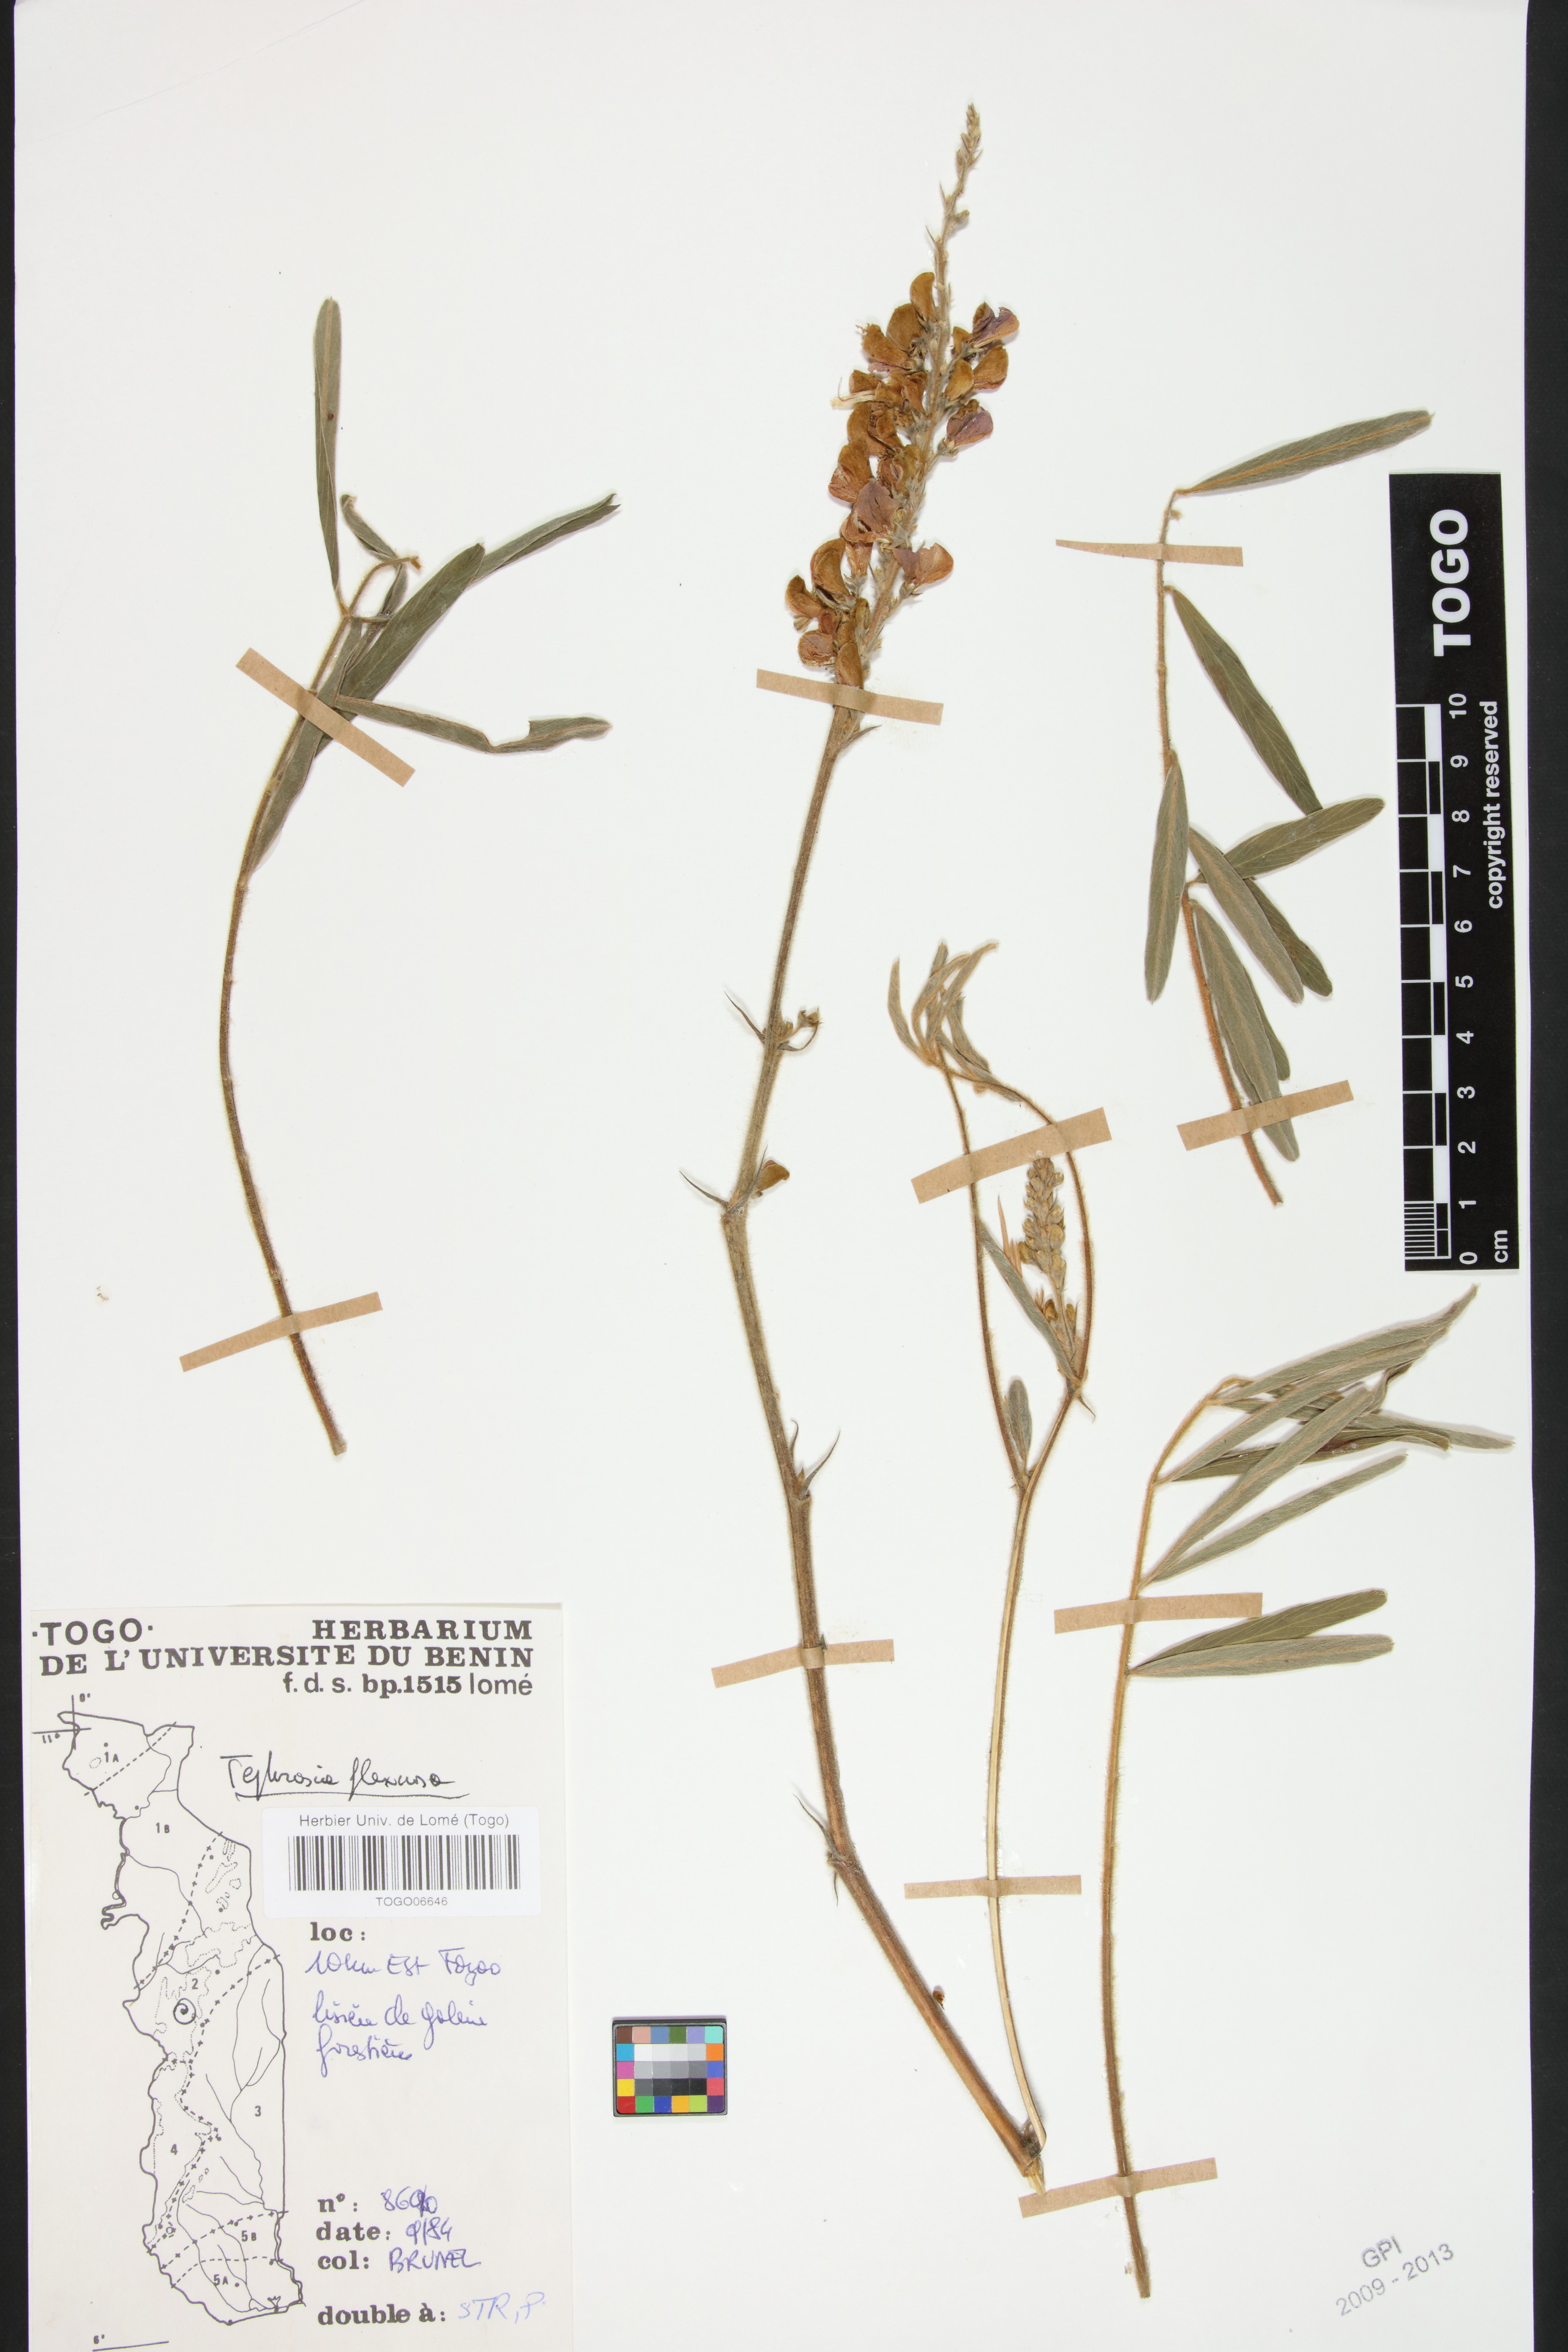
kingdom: Plantae
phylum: Tracheophyta
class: Magnoliopsida
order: Fabales
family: Fabaceae
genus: Tephrosia
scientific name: Tephrosia flexuosa
